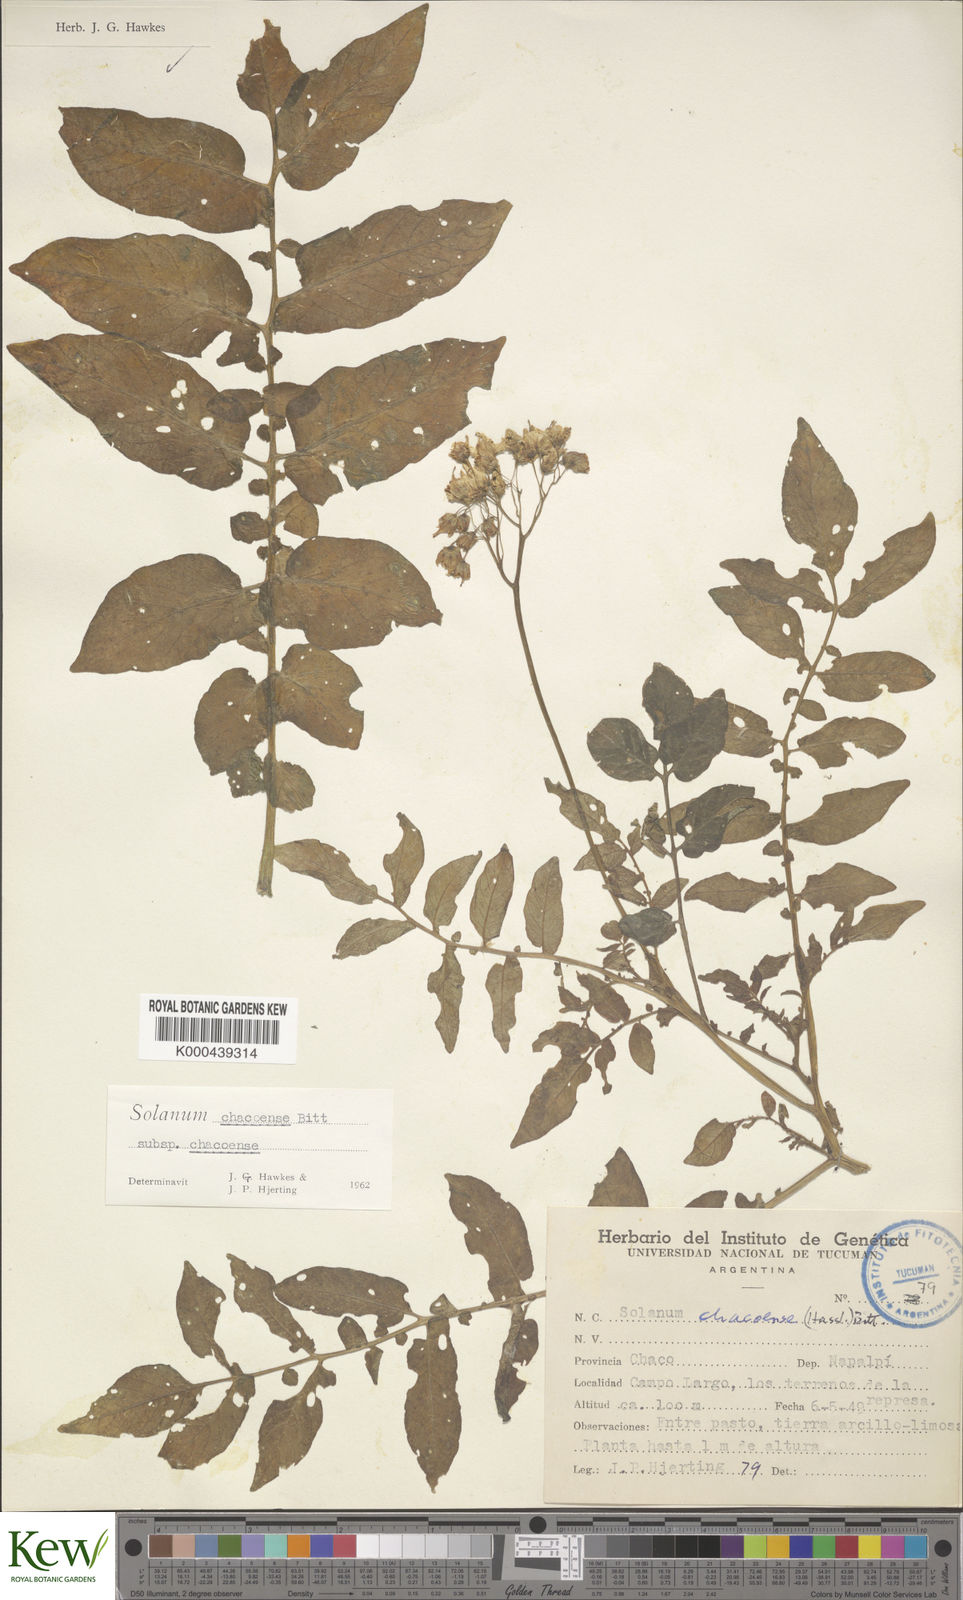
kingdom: Plantae
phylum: Tracheophyta
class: Magnoliopsida
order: Solanales
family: Solanaceae
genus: Solanum
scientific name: Solanum chacoense
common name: Chaco potato
